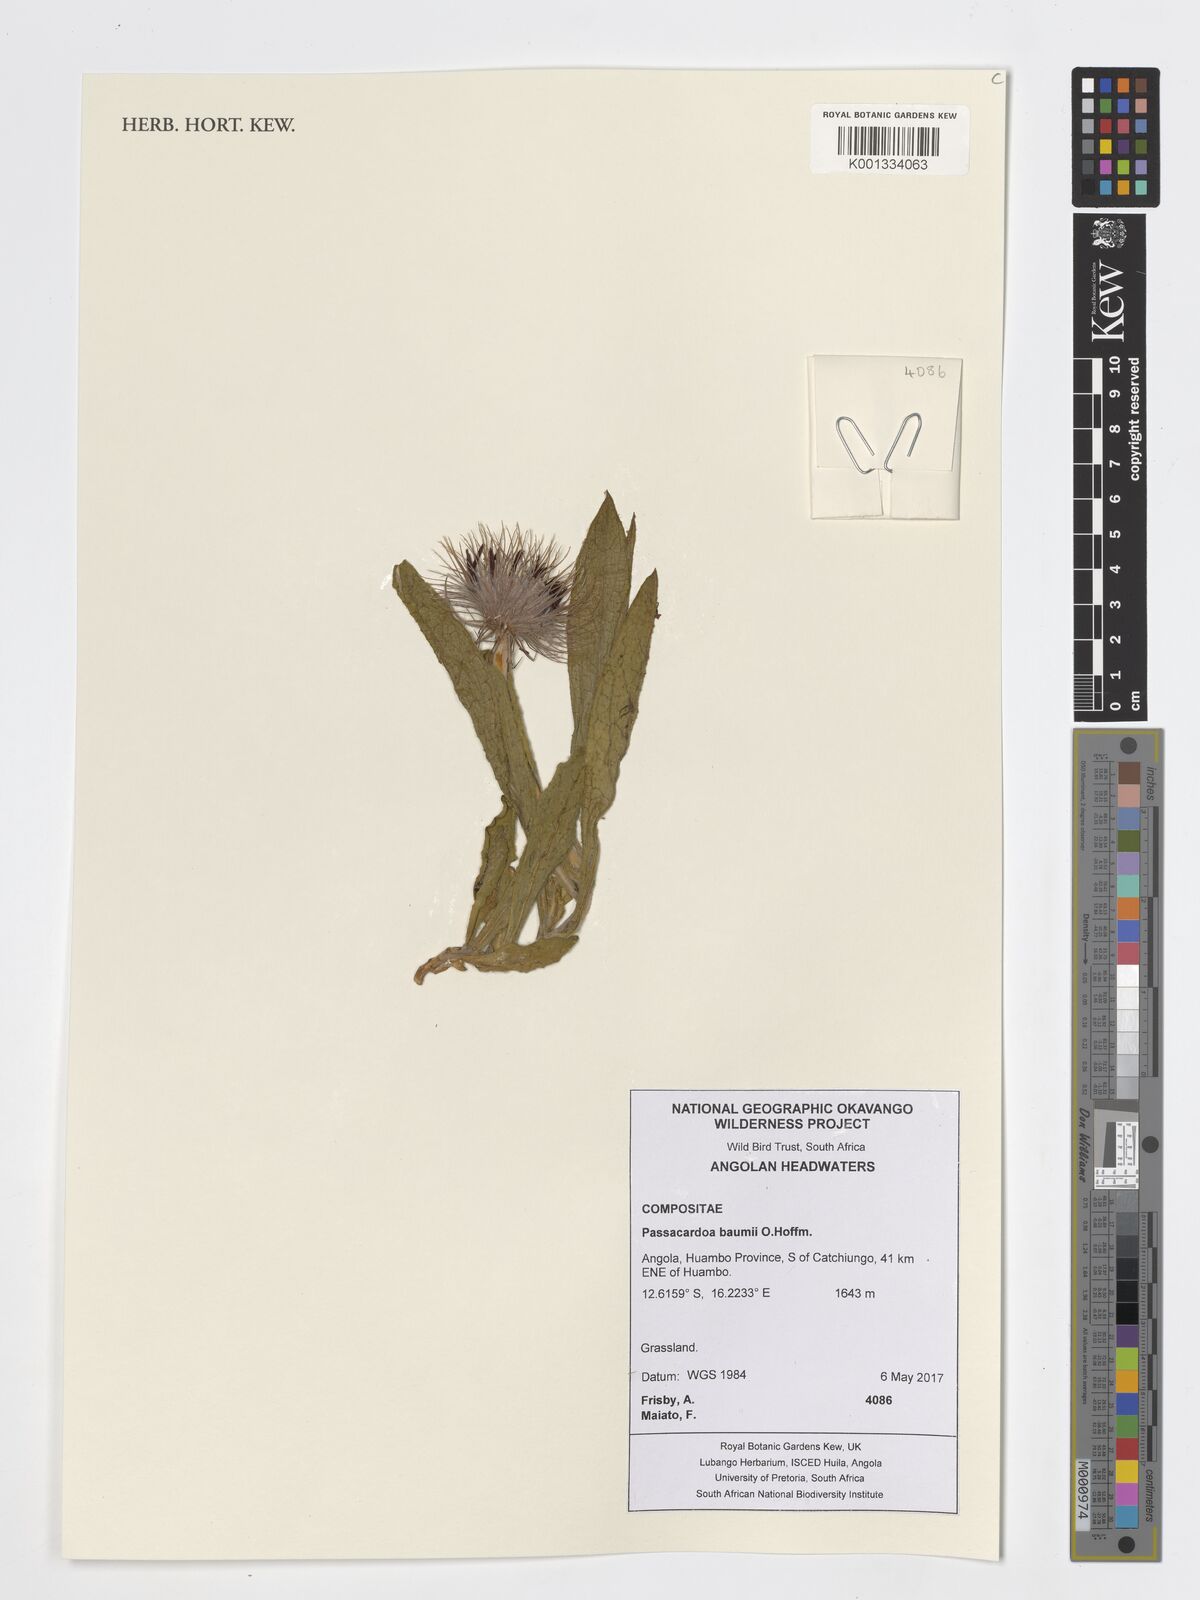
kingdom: Plantae
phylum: Tracheophyta
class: Magnoliopsida
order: Asterales
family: Asteraceae
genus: Pasaccardoa
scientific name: Pasaccardoa baumii
